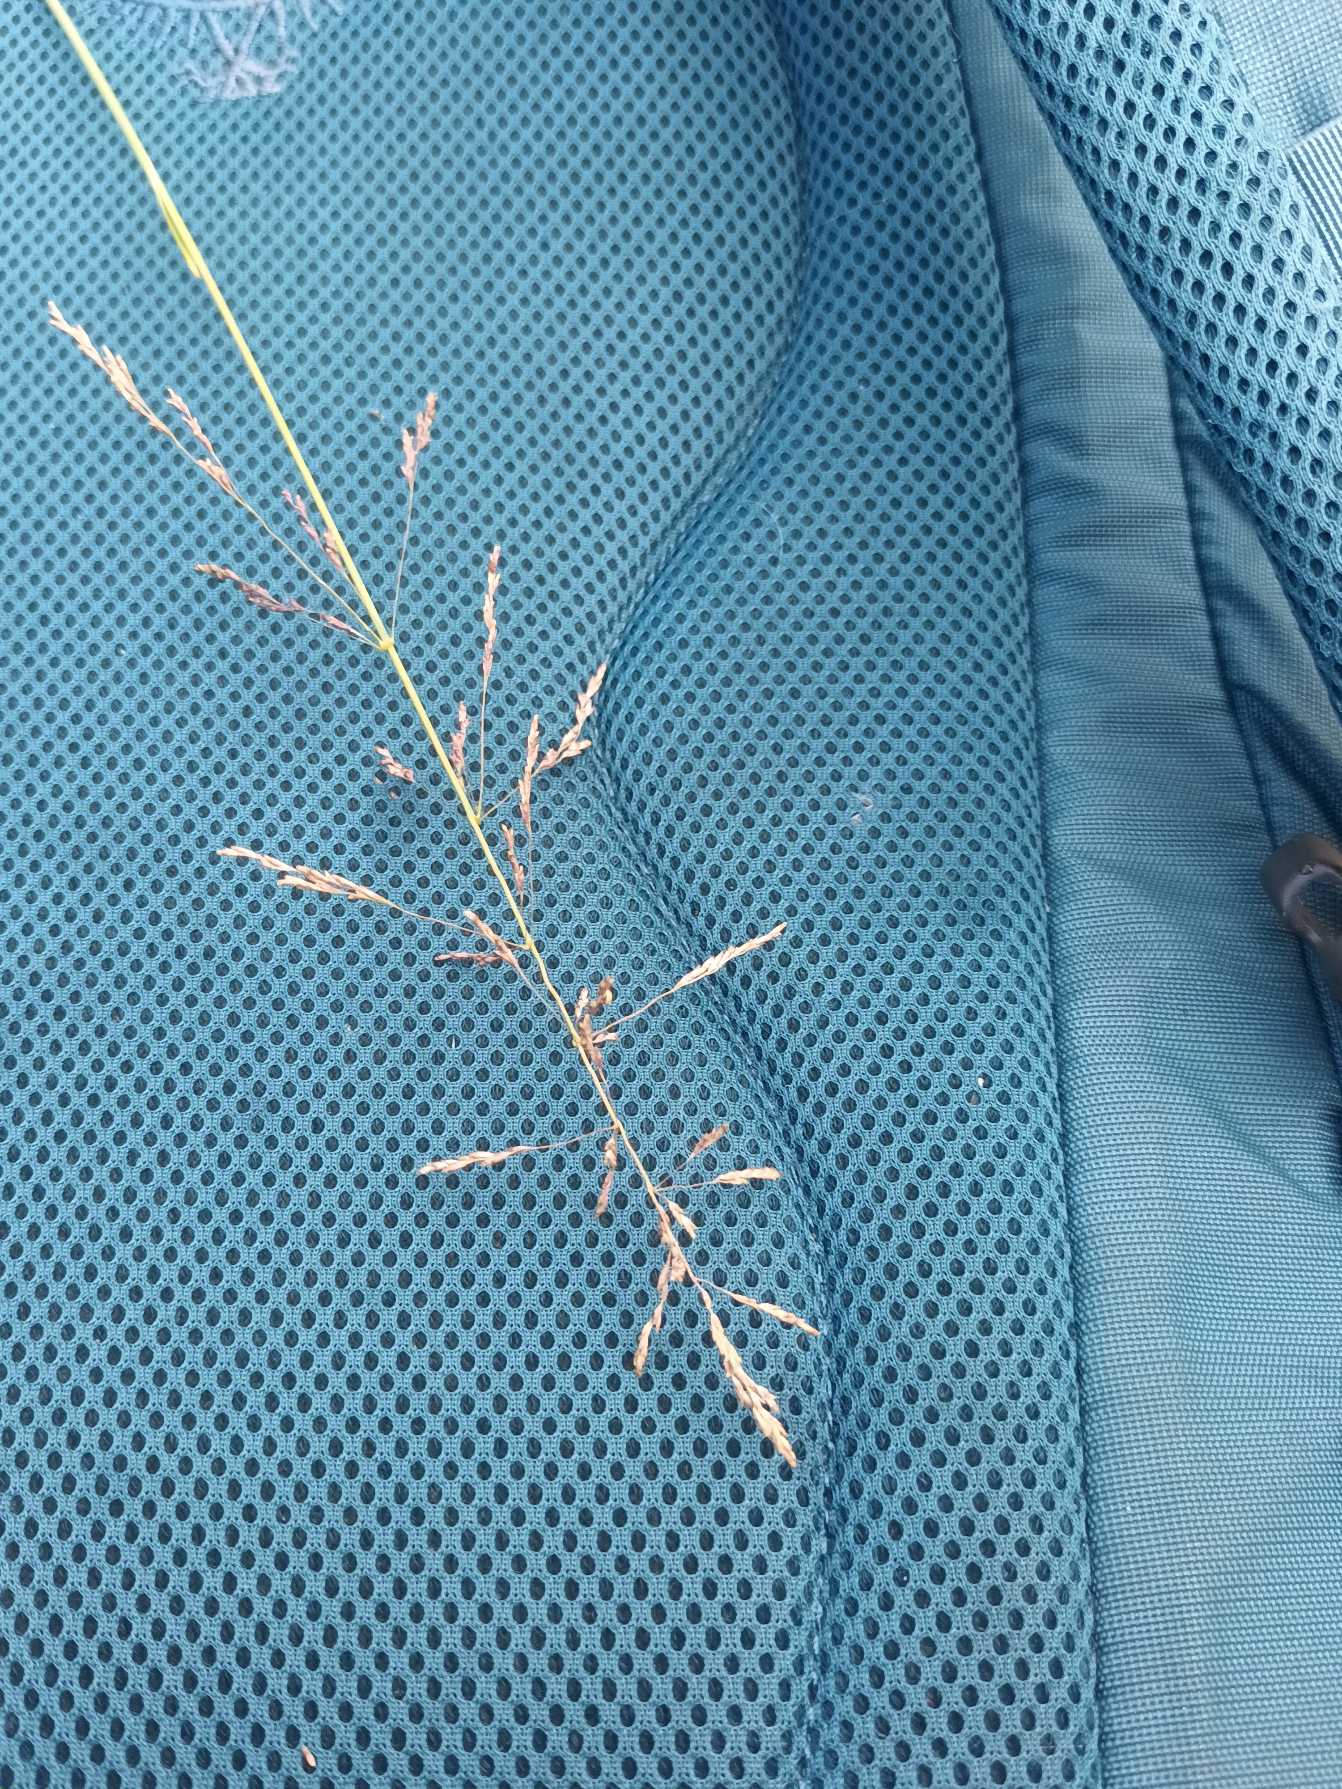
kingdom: Plantae
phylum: Tracheophyta
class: Liliopsida
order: Poales
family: Poaceae
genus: Puccinellia
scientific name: Puccinellia distans
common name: Udspærret annelgræs
